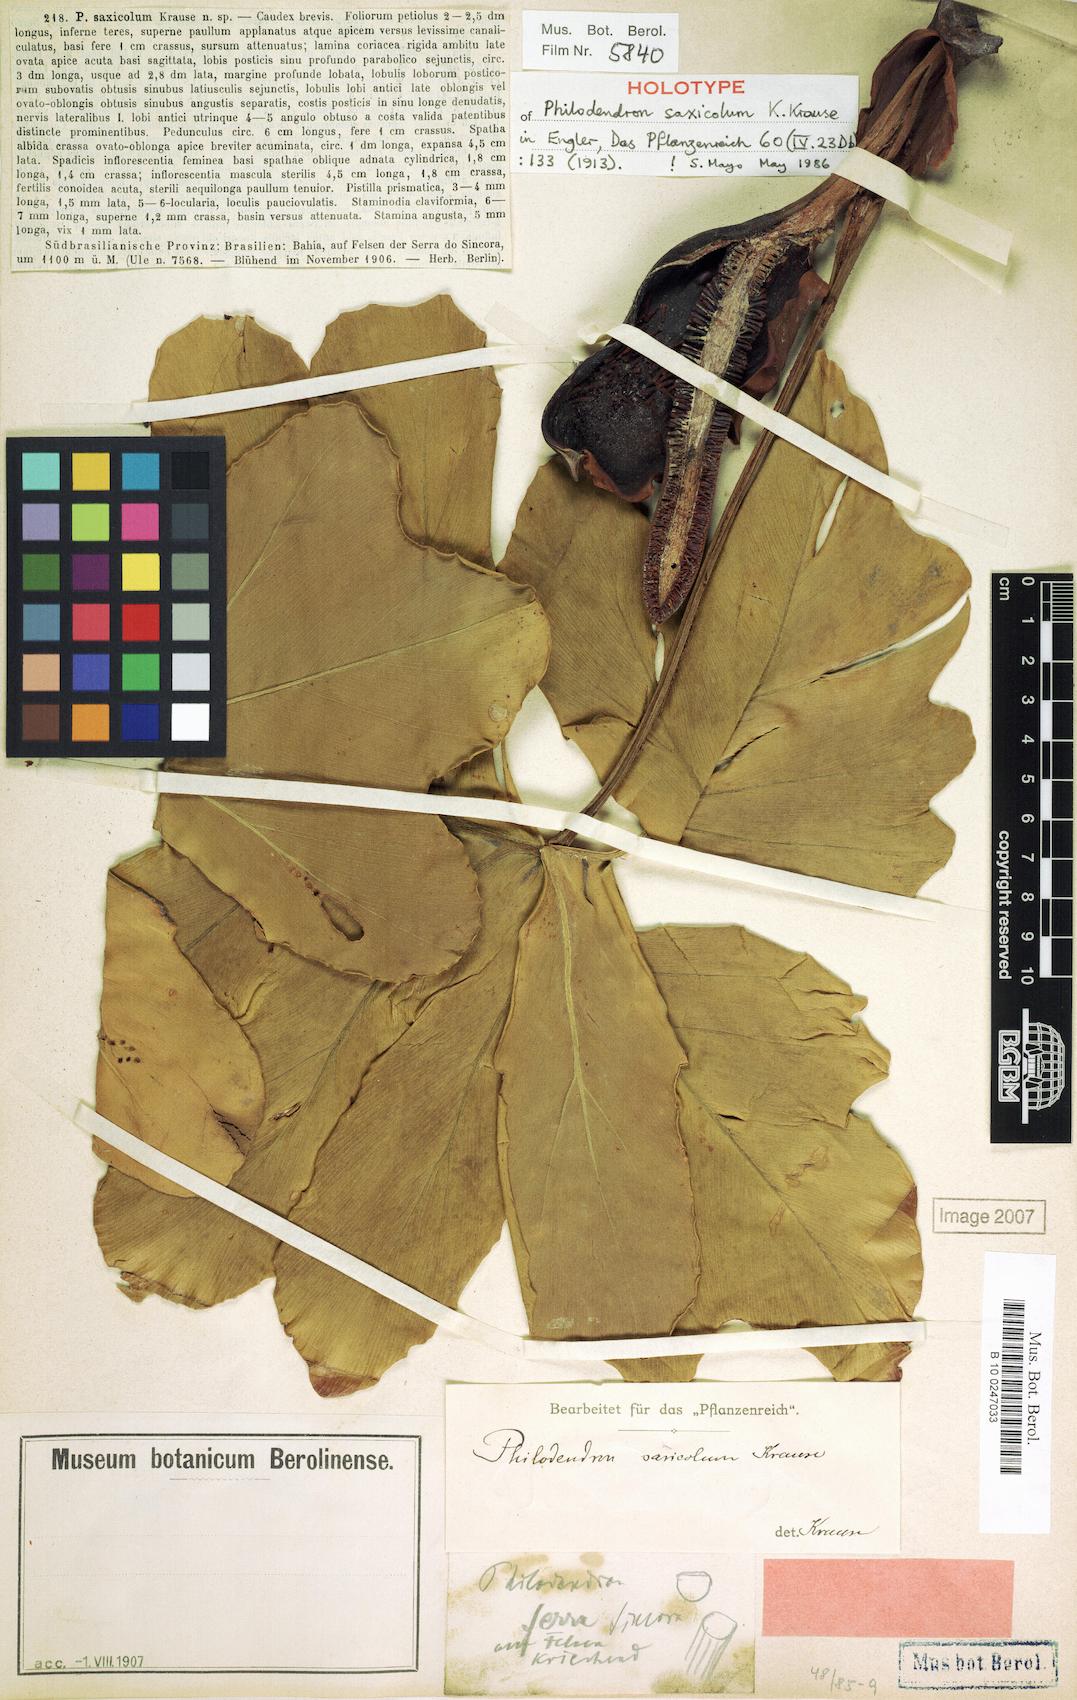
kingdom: Plantae
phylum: Tracheophyta
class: Liliopsida
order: Alismatales
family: Araceae
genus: Thaumatophyllum
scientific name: Thaumatophyllum saxicola
